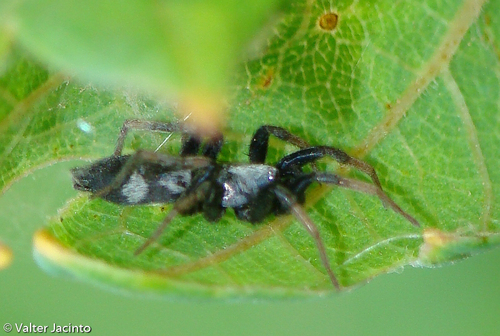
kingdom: Animalia
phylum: Arthropoda
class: Arachnida
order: Araneae
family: Gnaphosidae
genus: Aphantaulax
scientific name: Aphantaulax trifasciata
